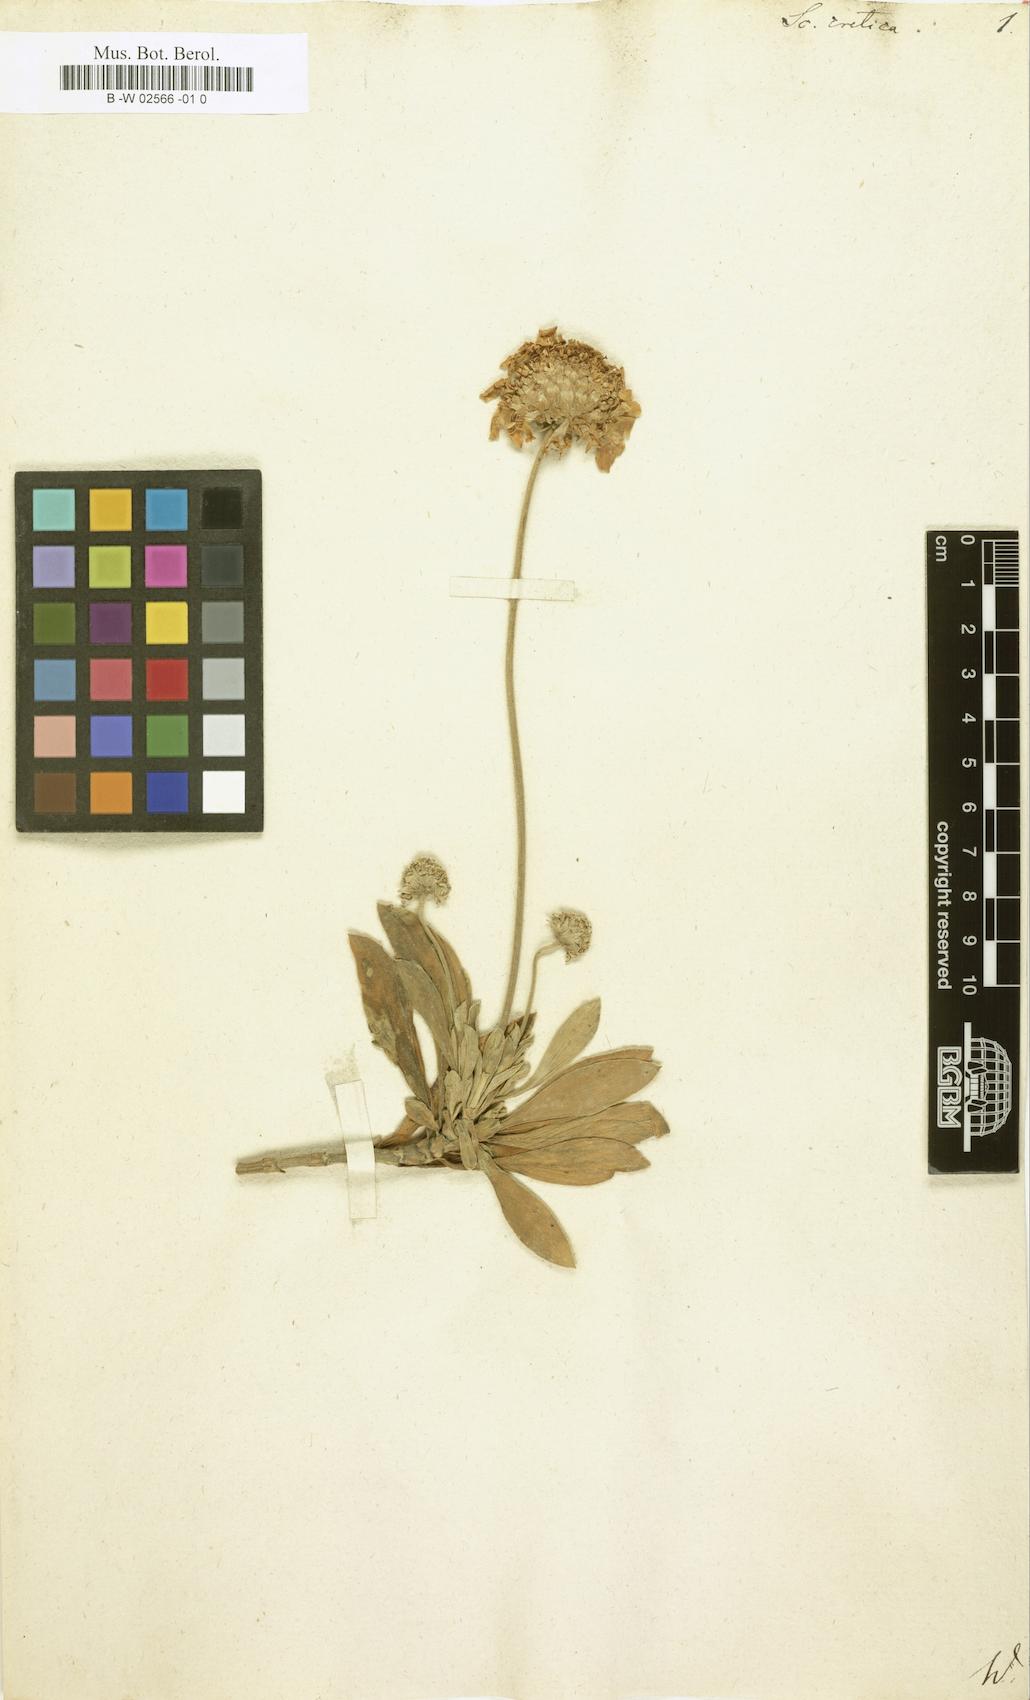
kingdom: Plantae
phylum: Tracheophyta
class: Magnoliopsida
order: Dipsacales
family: Caprifoliaceae
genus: Lomelosia
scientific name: Lomelosia cretica
